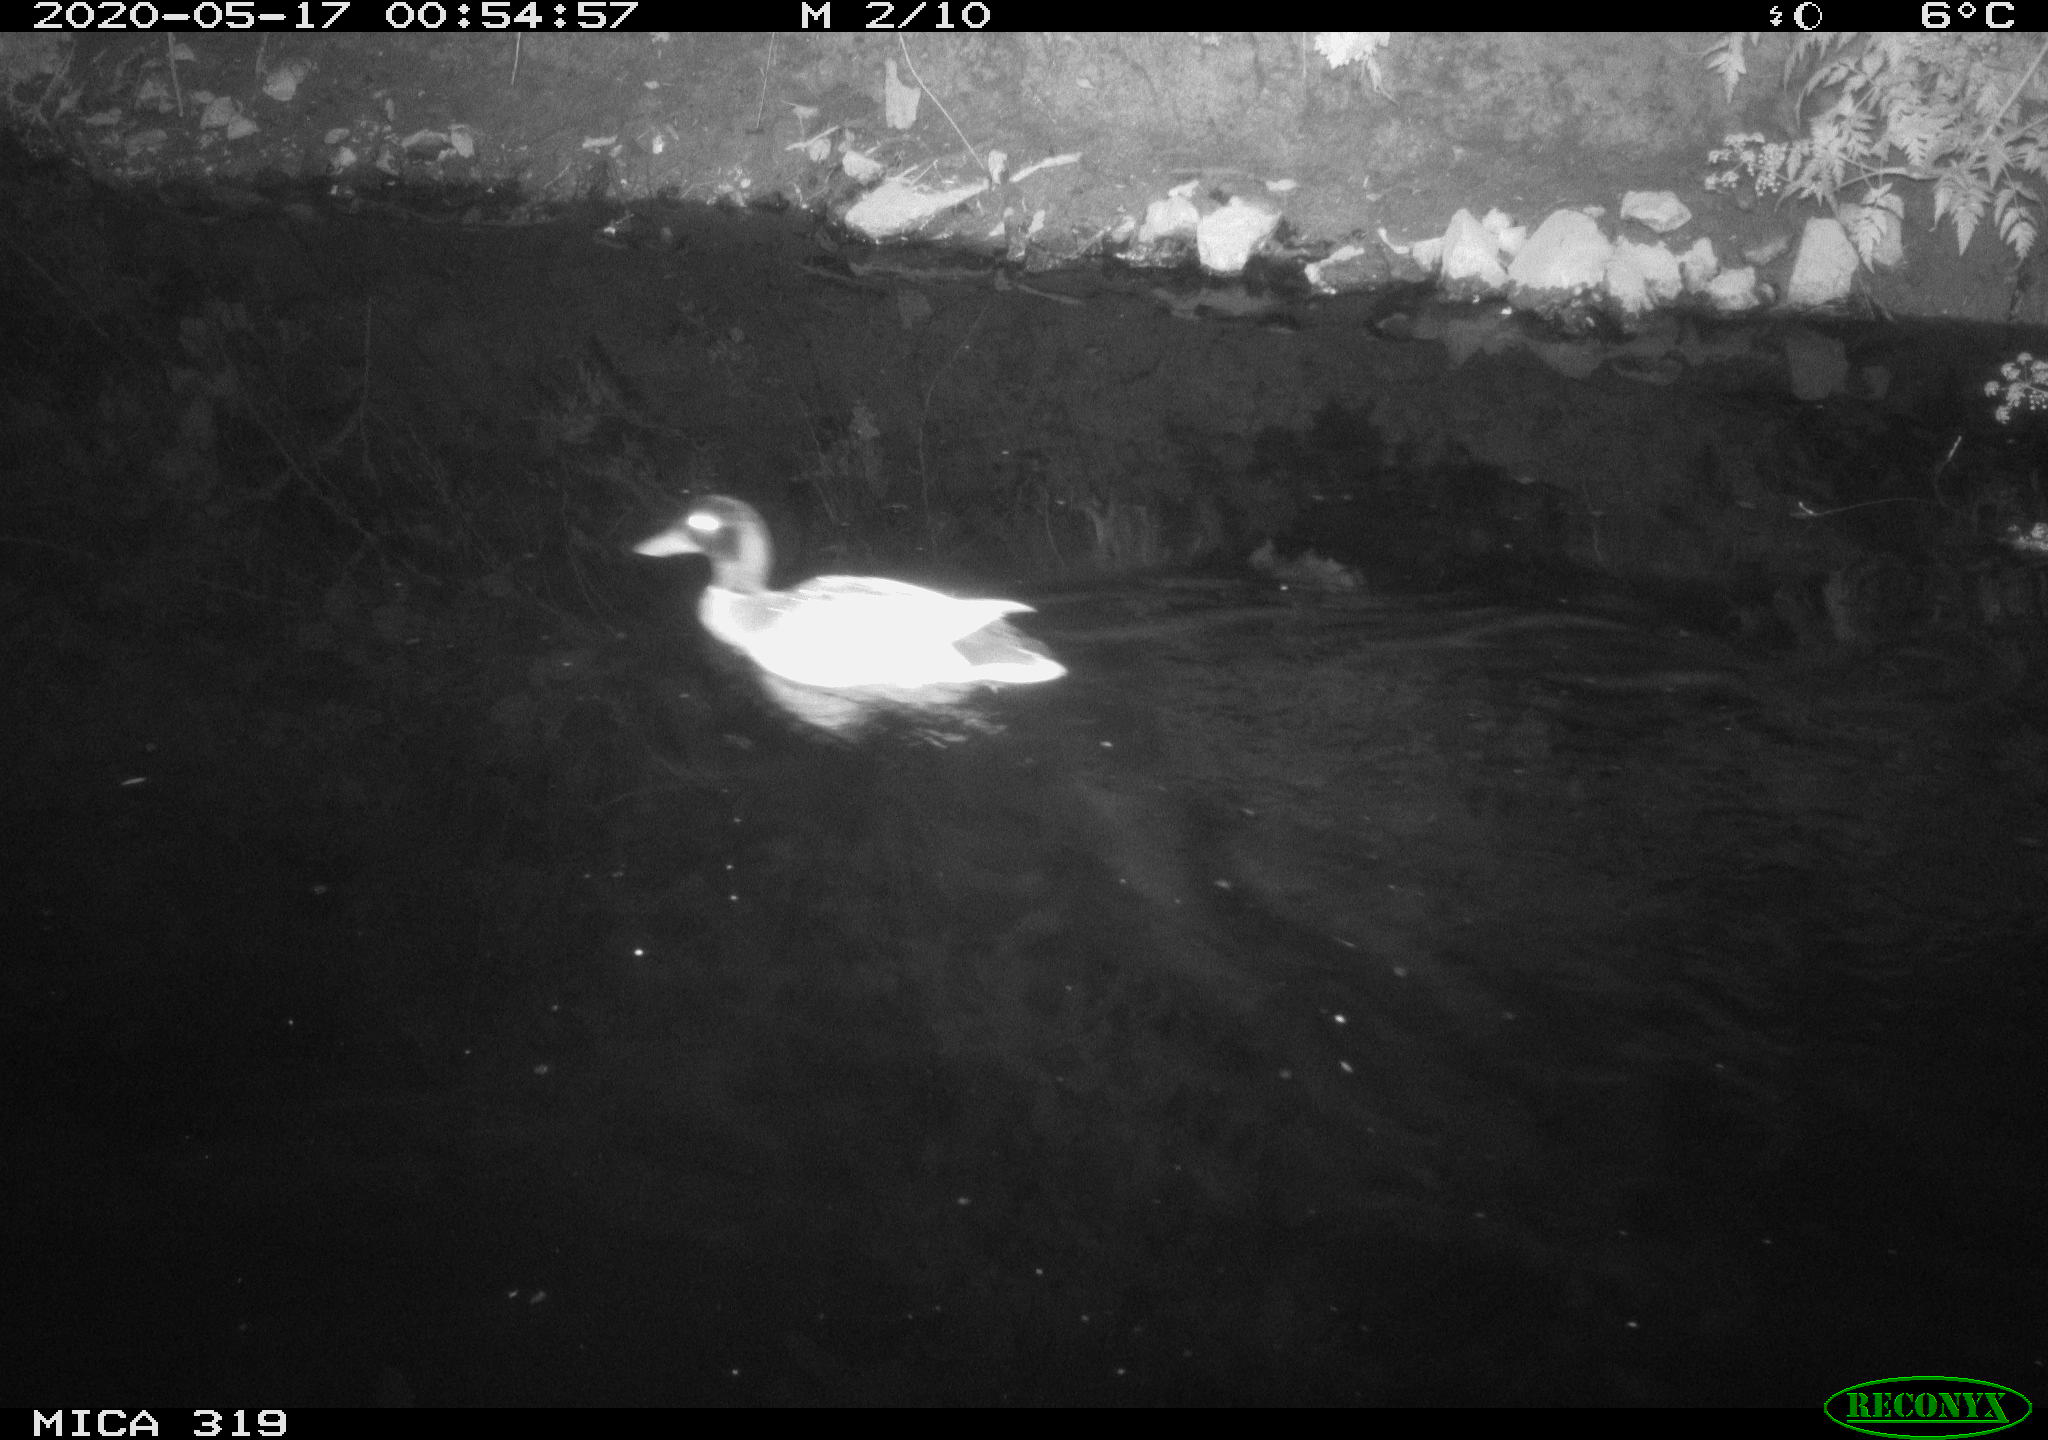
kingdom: Animalia
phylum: Chordata
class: Aves
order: Anseriformes
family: Anatidae
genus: Anas
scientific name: Anas platyrhynchos
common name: Mallard
